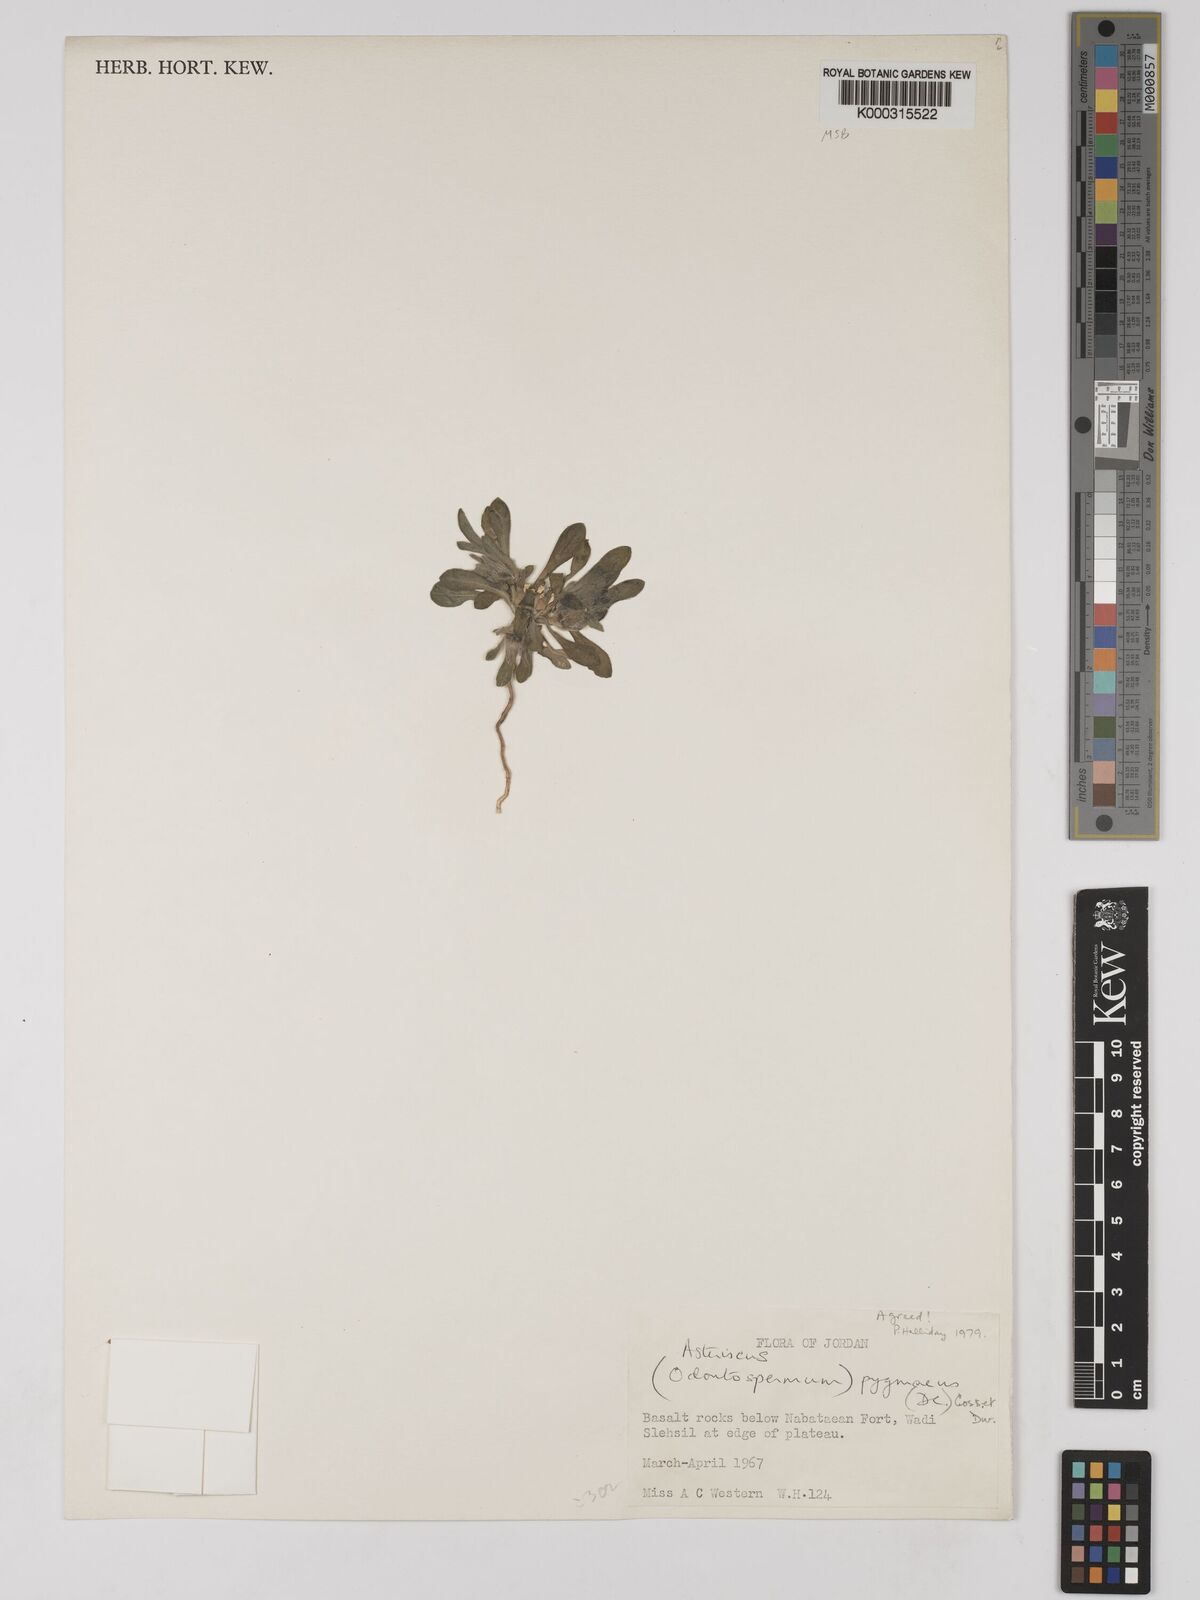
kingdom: Plantae
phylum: Tracheophyta
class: Magnoliopsida
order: Asterales
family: Asteraceae
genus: Pallenis
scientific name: Pallenis hierochuntica
